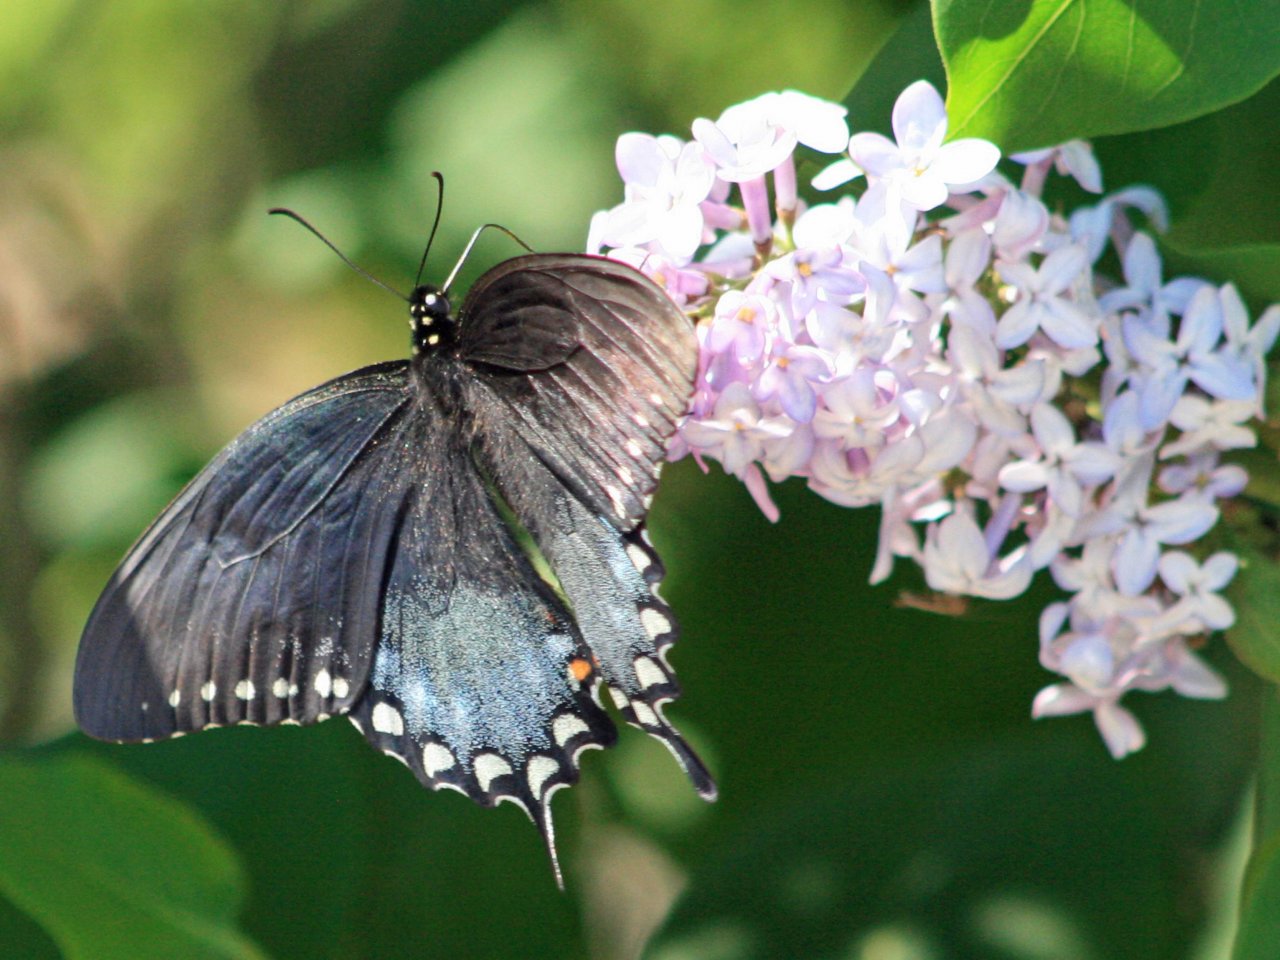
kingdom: Animalia
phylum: Arthropoda
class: Insecta
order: Lepidoptera
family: Papilionidae
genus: Pterourus
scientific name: Pterourus troilus
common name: Spicebush Swallowtail
